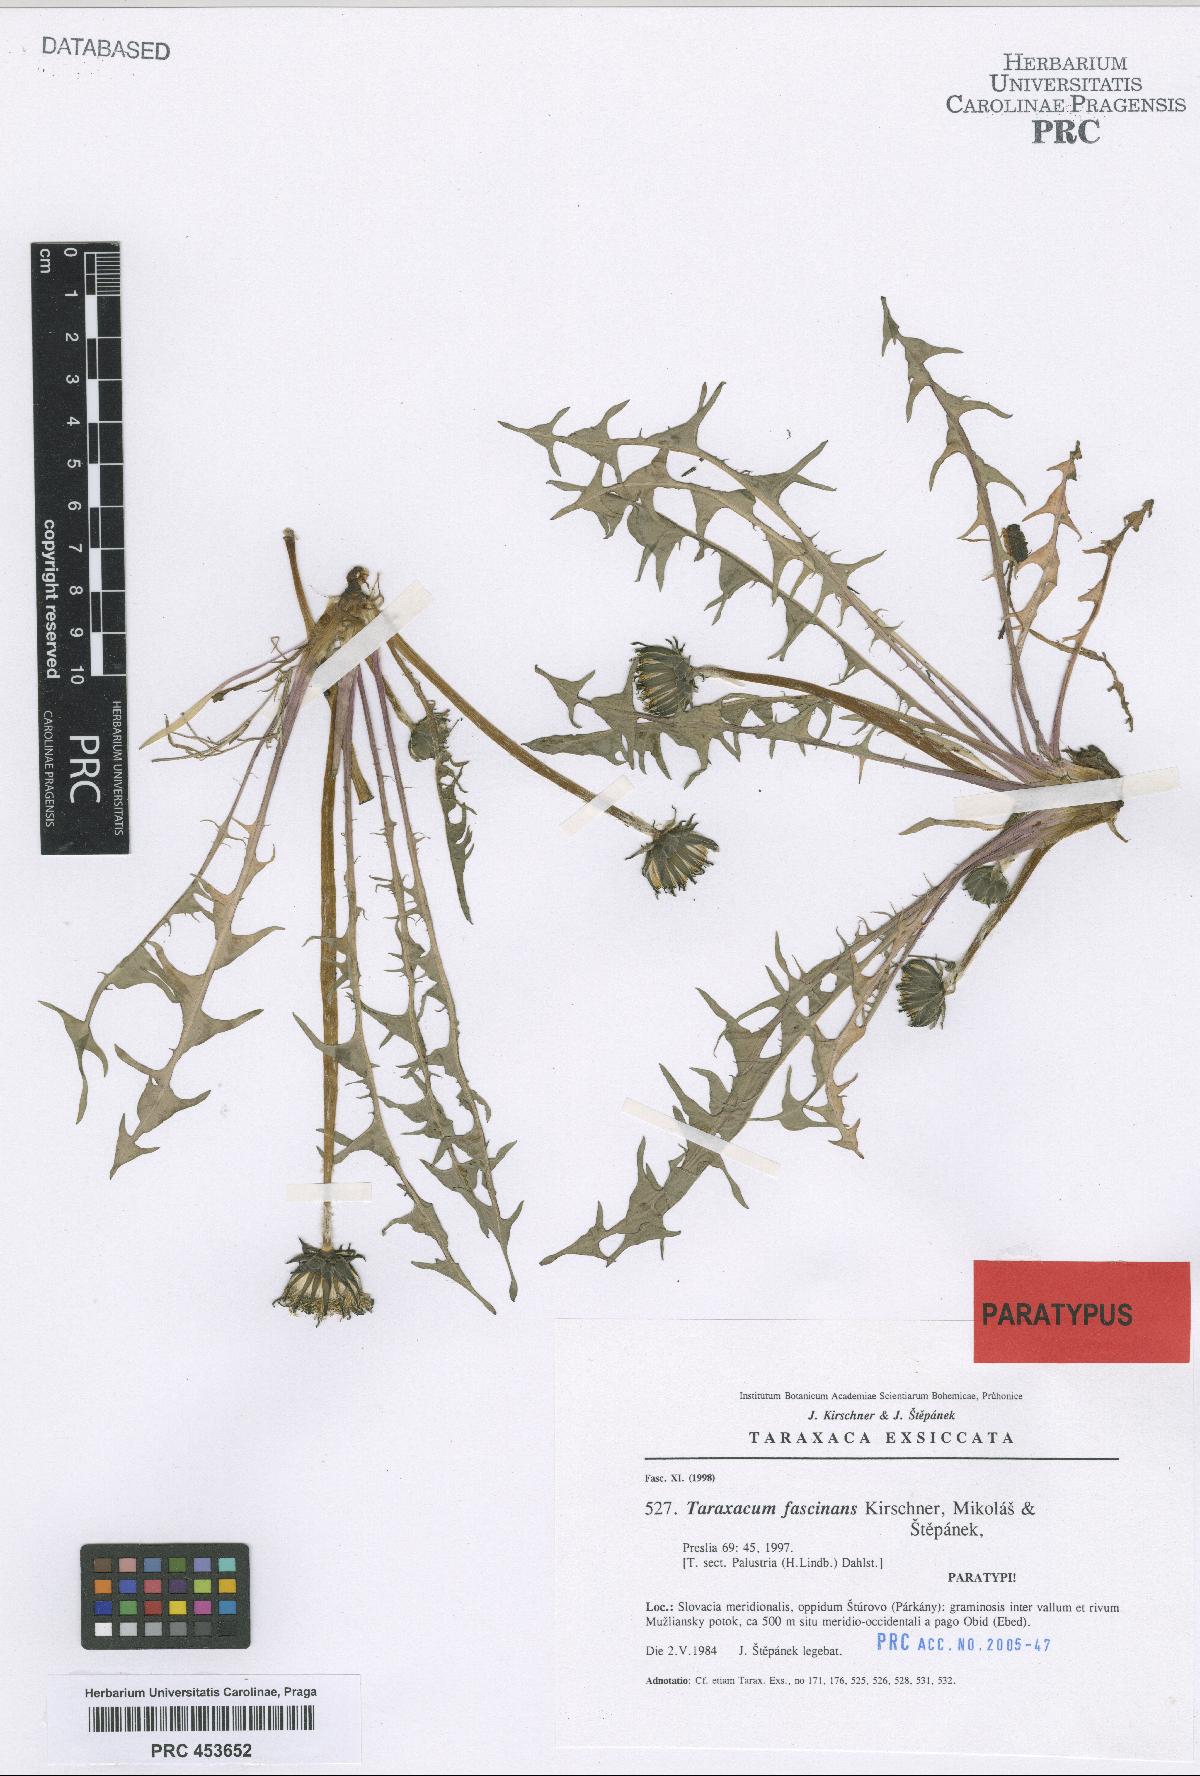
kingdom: Plantae
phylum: Tracheophyta
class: Magnoliopsida
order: Asterales
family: Asteraceae
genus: Taraxacum
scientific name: Taraxacum fascinans
